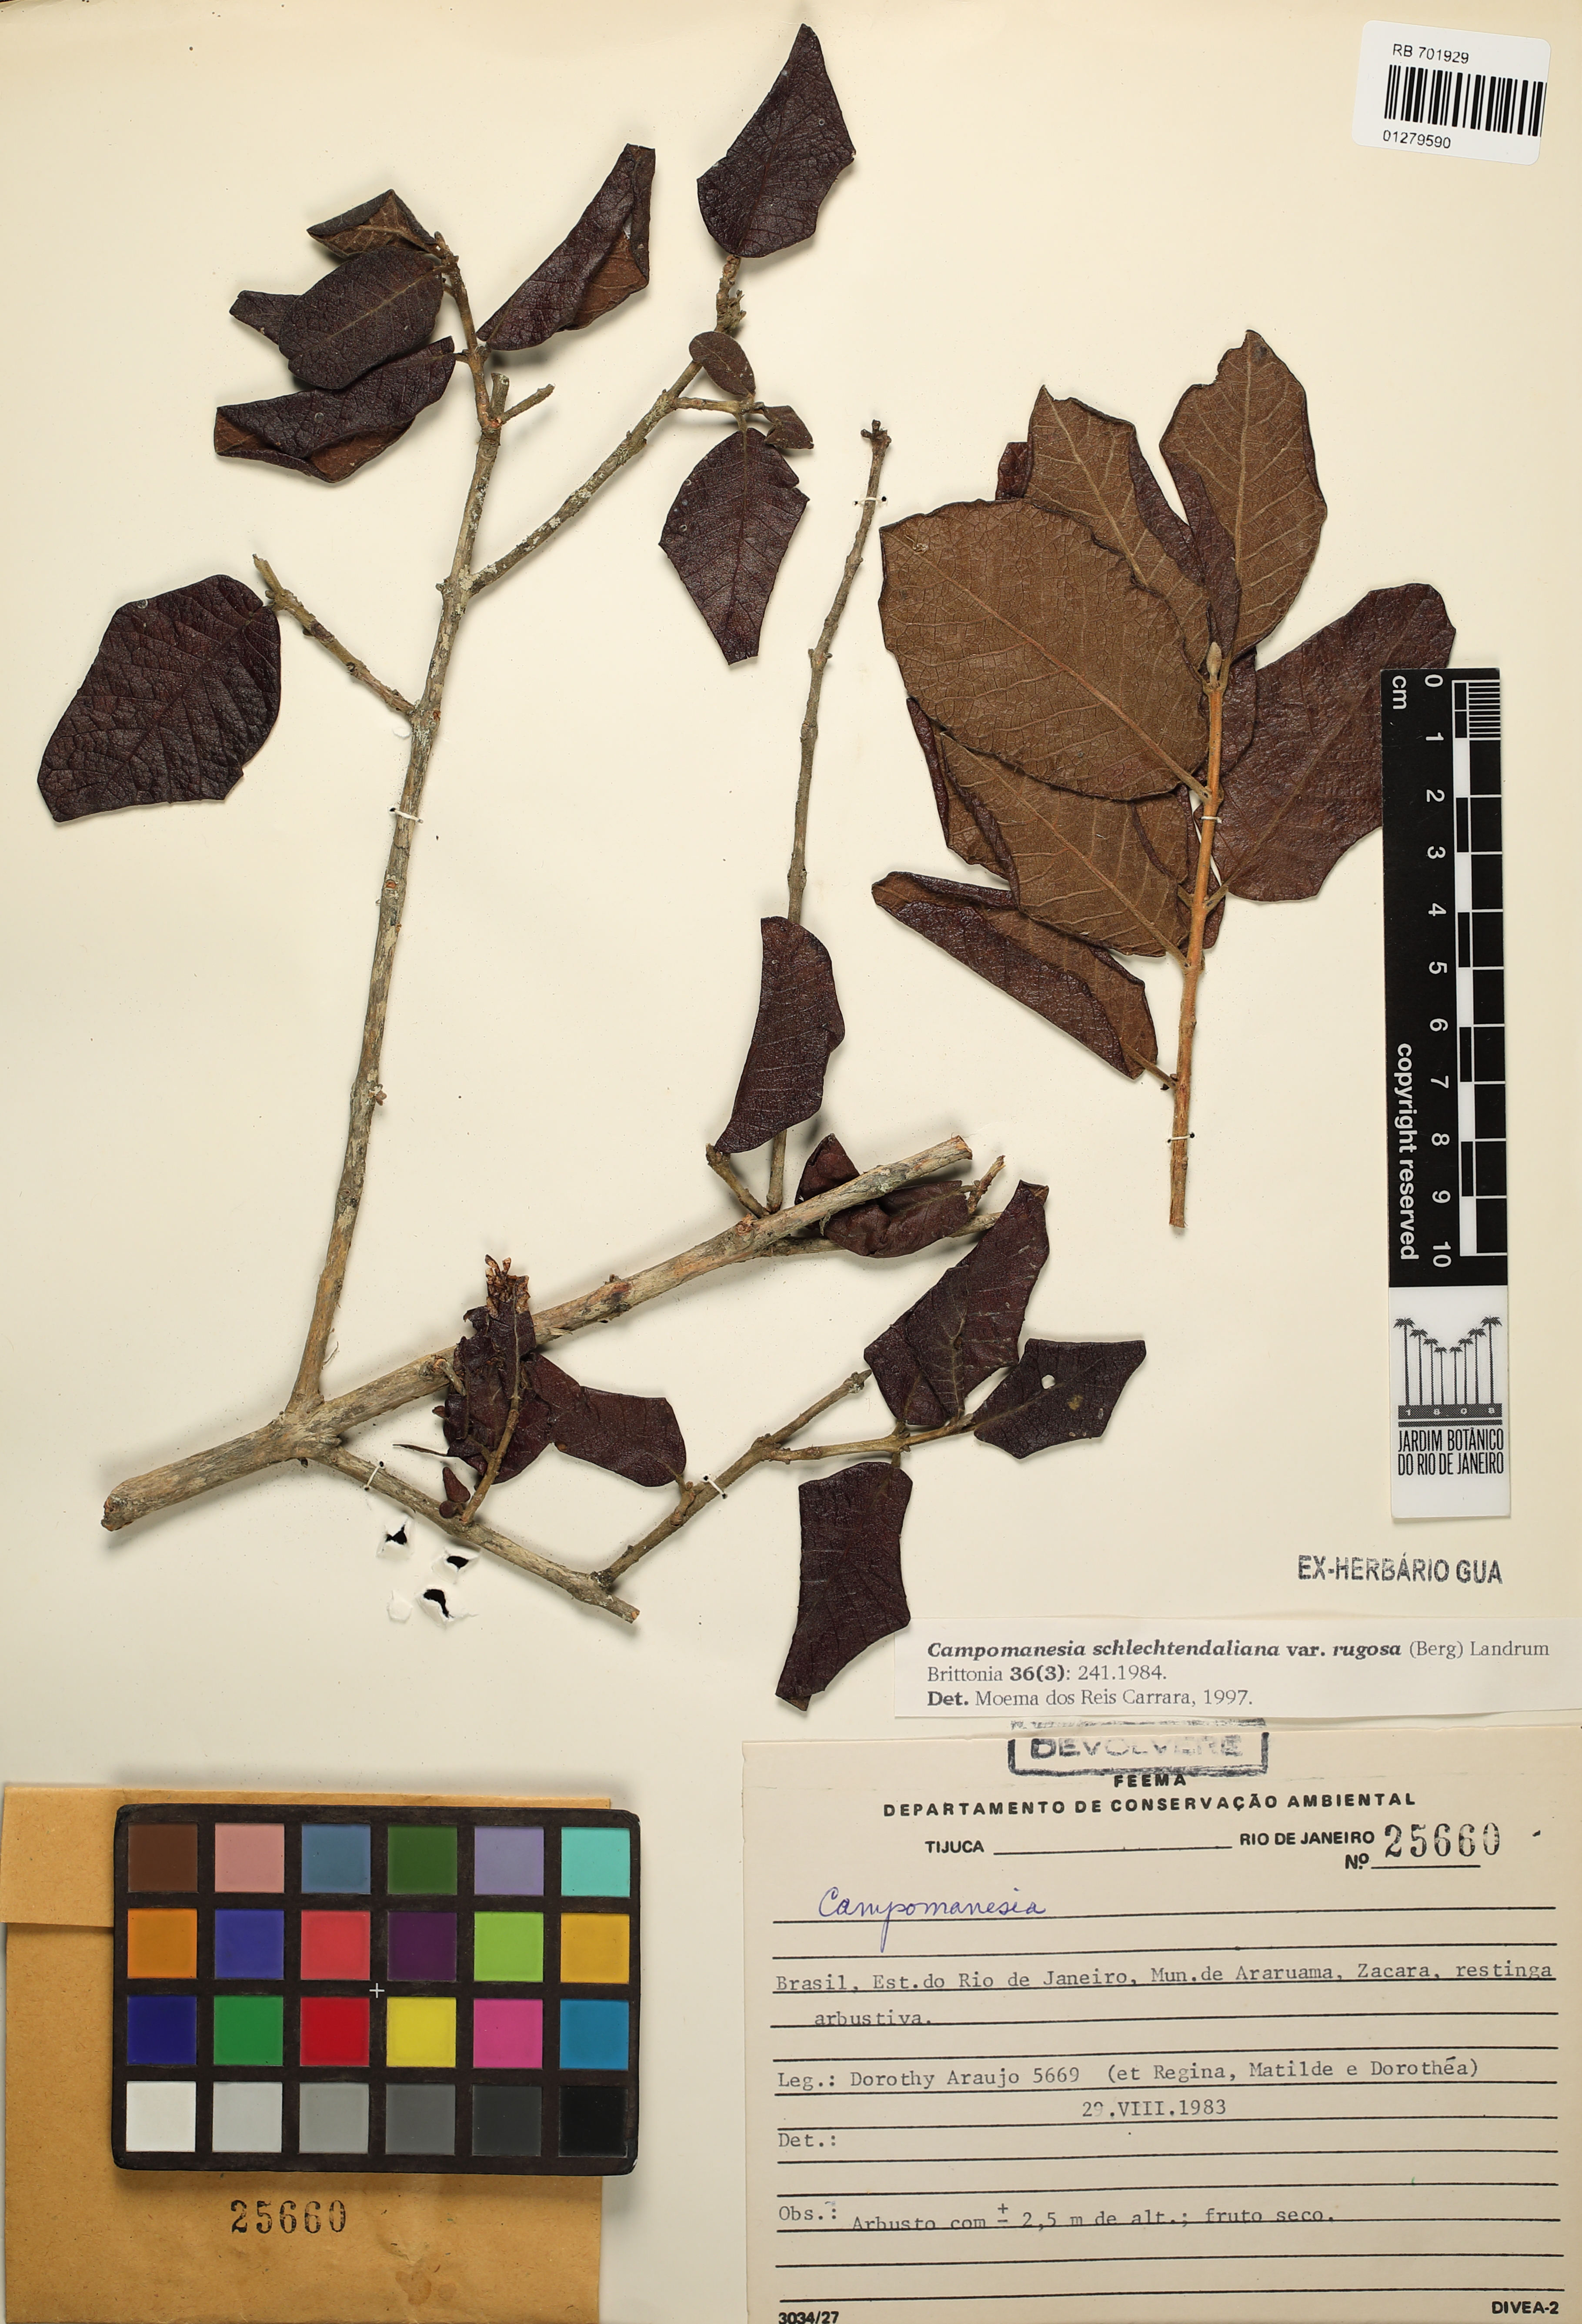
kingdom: Plantae
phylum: Tracheophyta
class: Magnoliopsida
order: Myrtales
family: Myrtaceae
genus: Campomanesia
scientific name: Campomanesia schlechtendaliana
